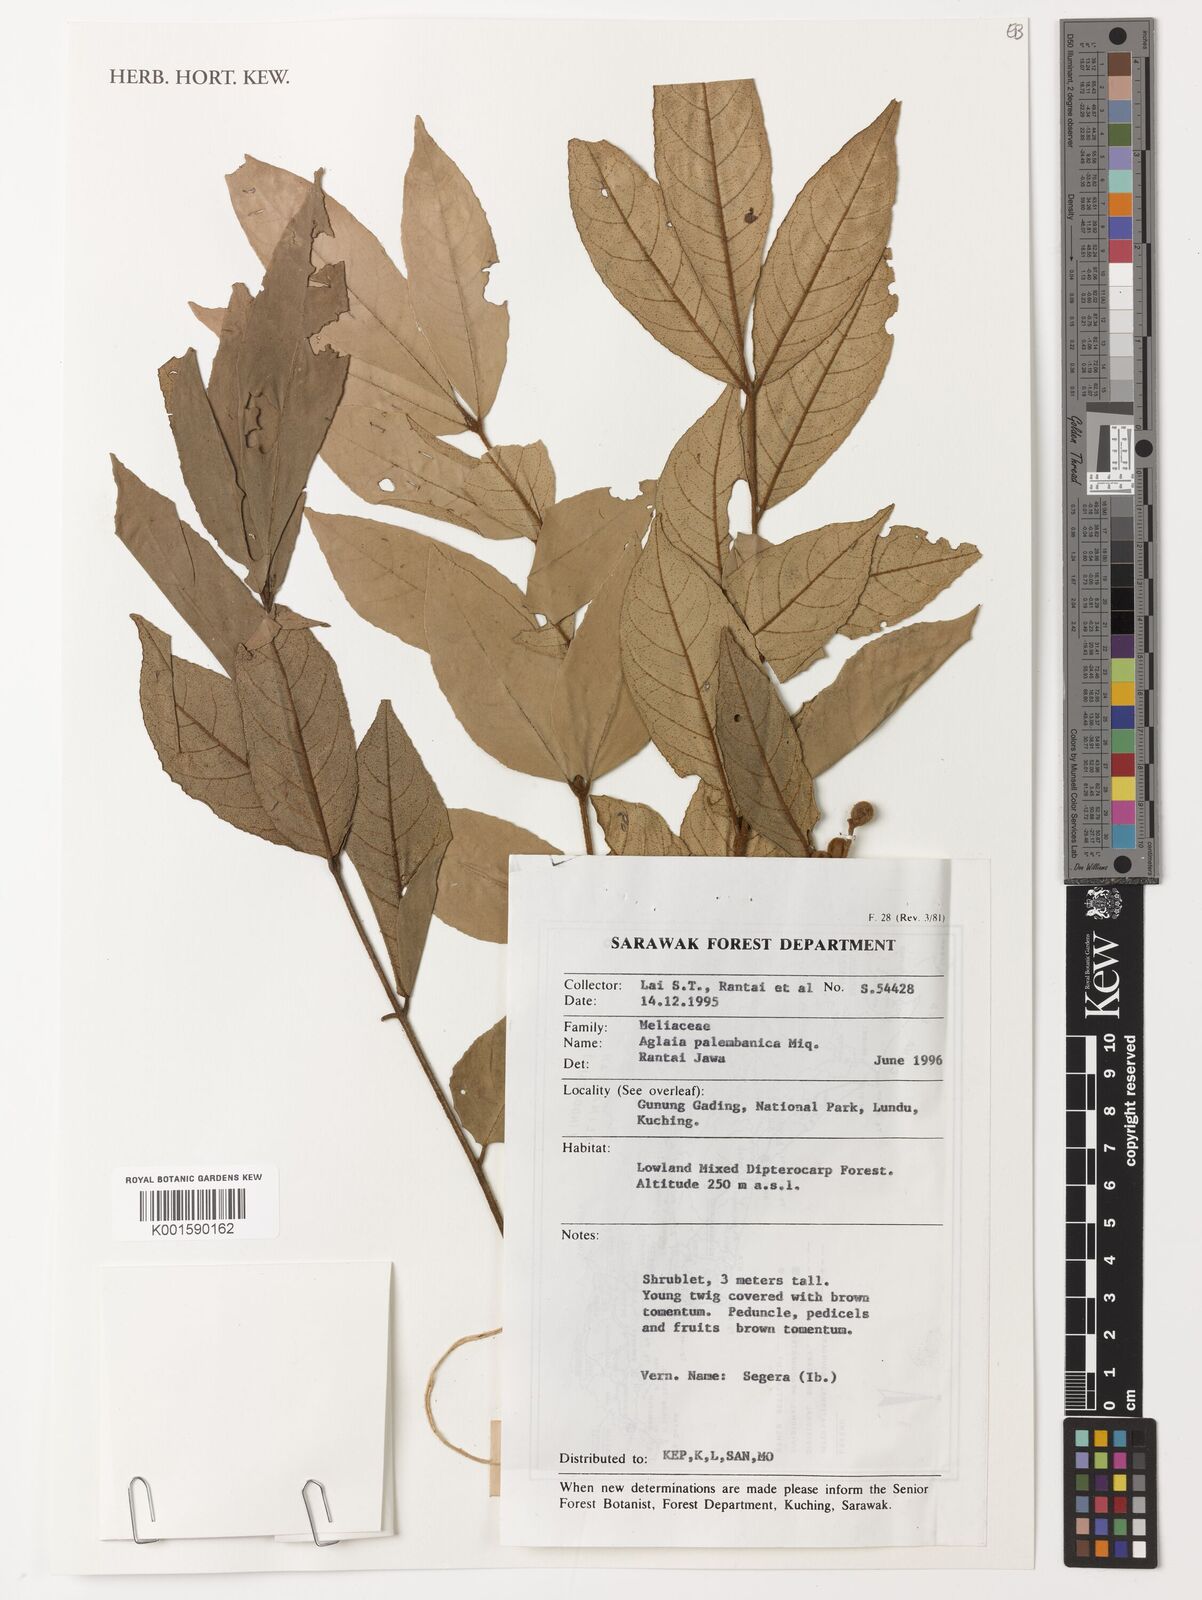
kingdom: Plantae
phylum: Tracheophyta
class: Magnoliopsida
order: Sapindales
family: Meliaceae
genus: Aglaia
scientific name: Aglaia palembanica
